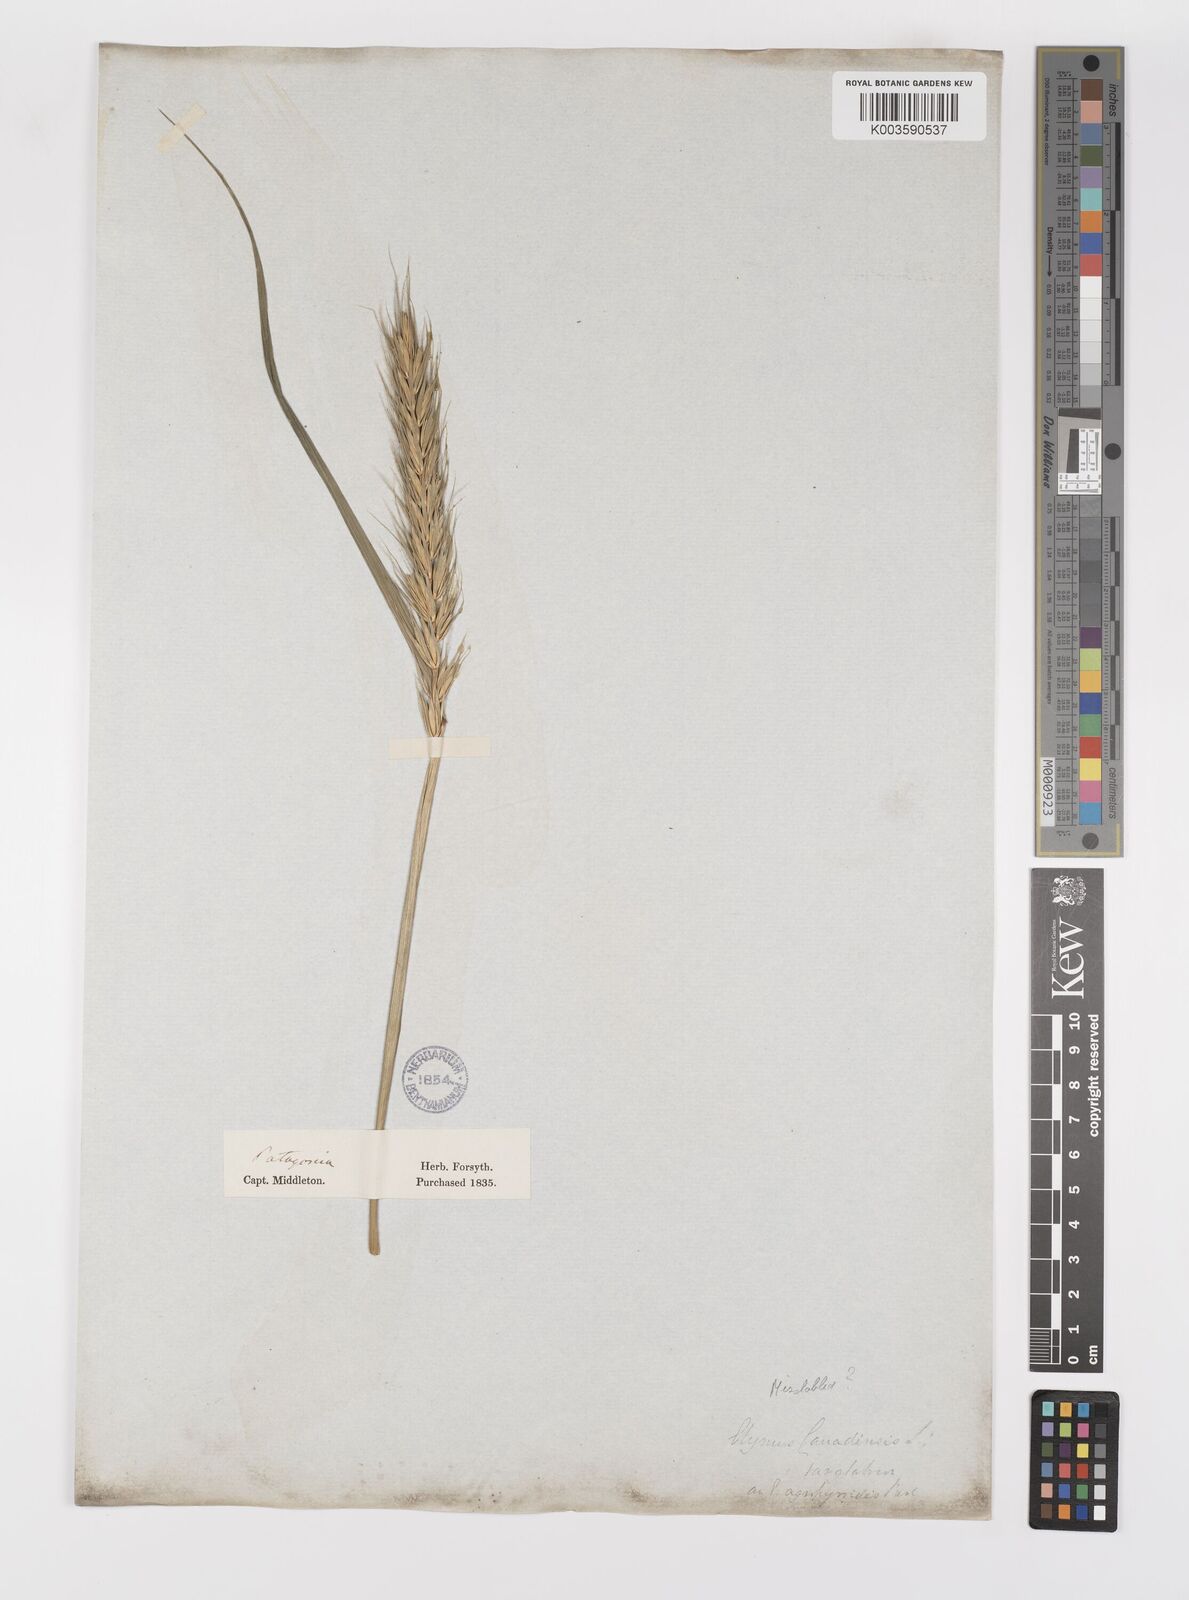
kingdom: Plantae
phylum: Tracheophyta
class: Liliopsida
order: Poales
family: Poaceae
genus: Elymus
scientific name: Elymus
